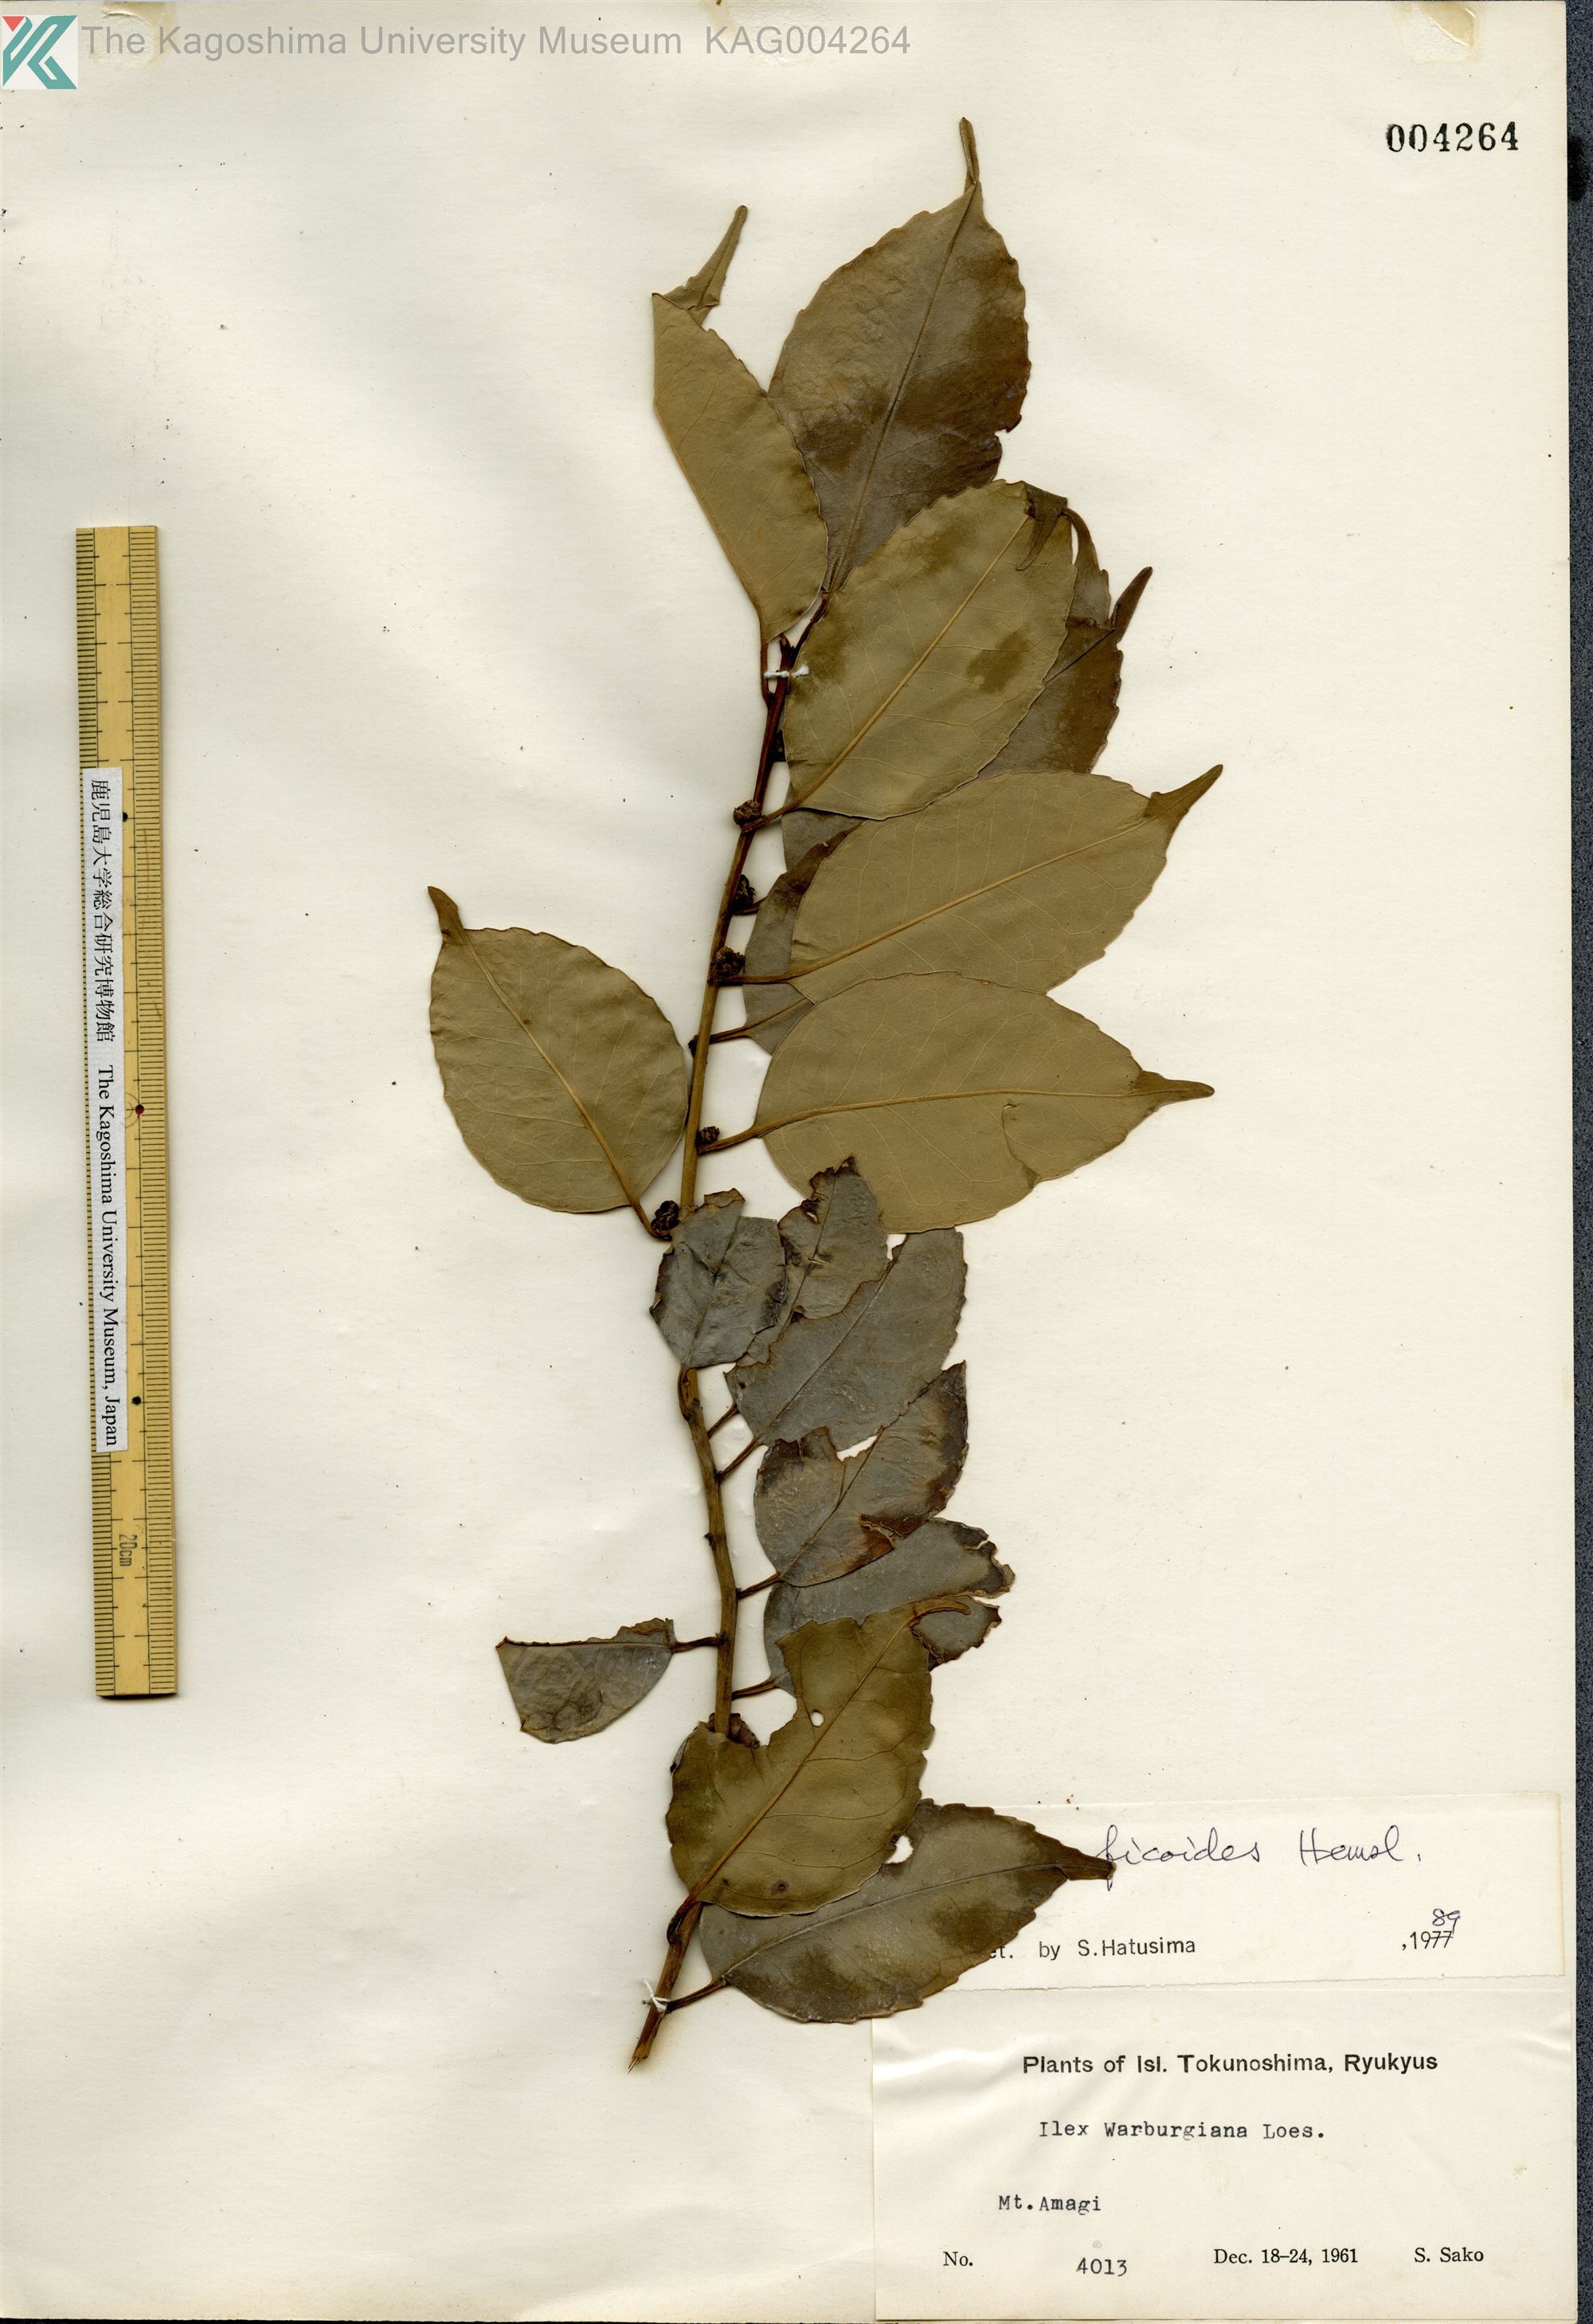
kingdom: Plantae
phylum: Tracheophyta
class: Magnoliopsida
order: Aquifoliales
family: Aquifoliaceae
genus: Ilex
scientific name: Ilex warburgii
